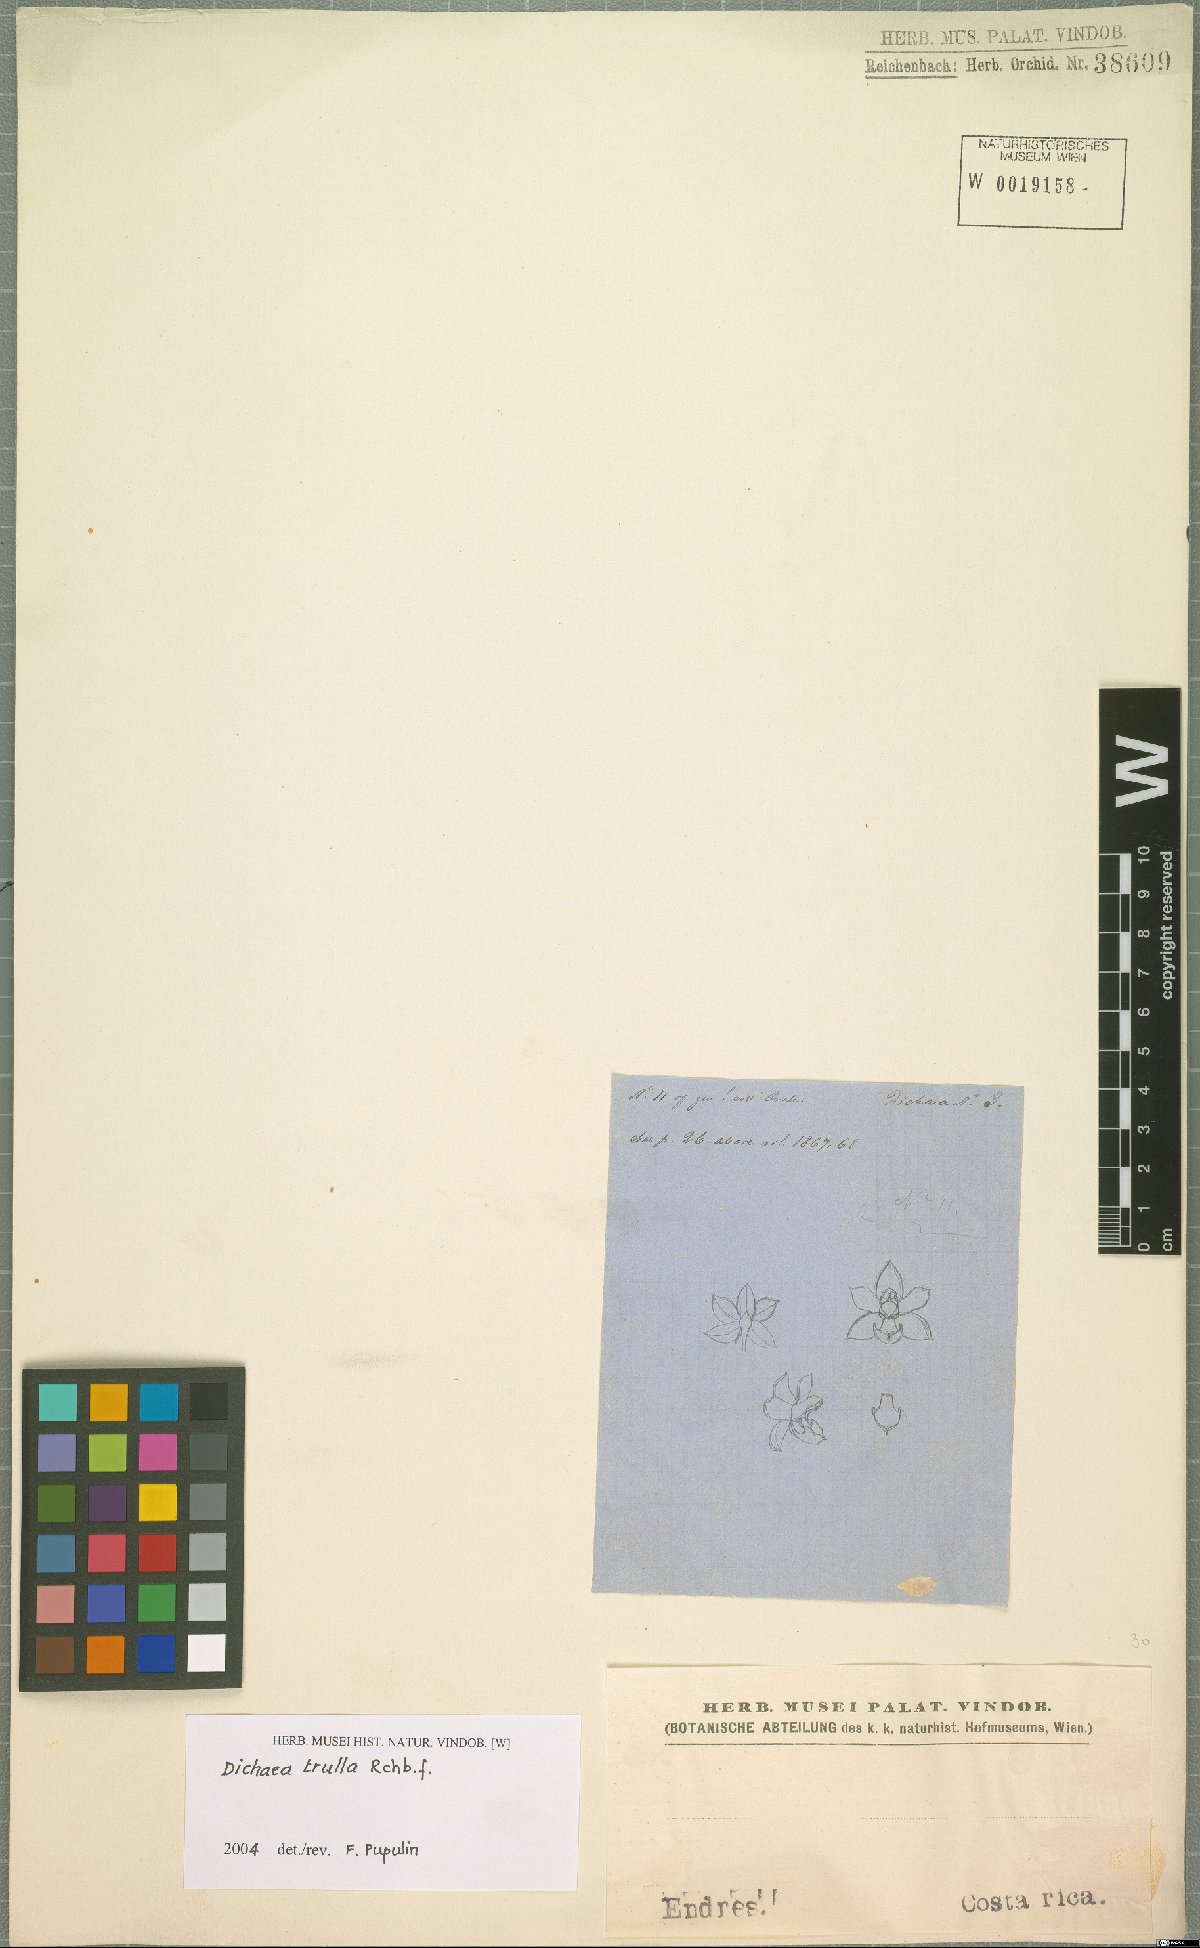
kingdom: Plantae
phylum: Tracheophyta
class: Liliopsida
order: Asparagales
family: Orchidaceae
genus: Dichaea
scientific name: Dichaea trulla
